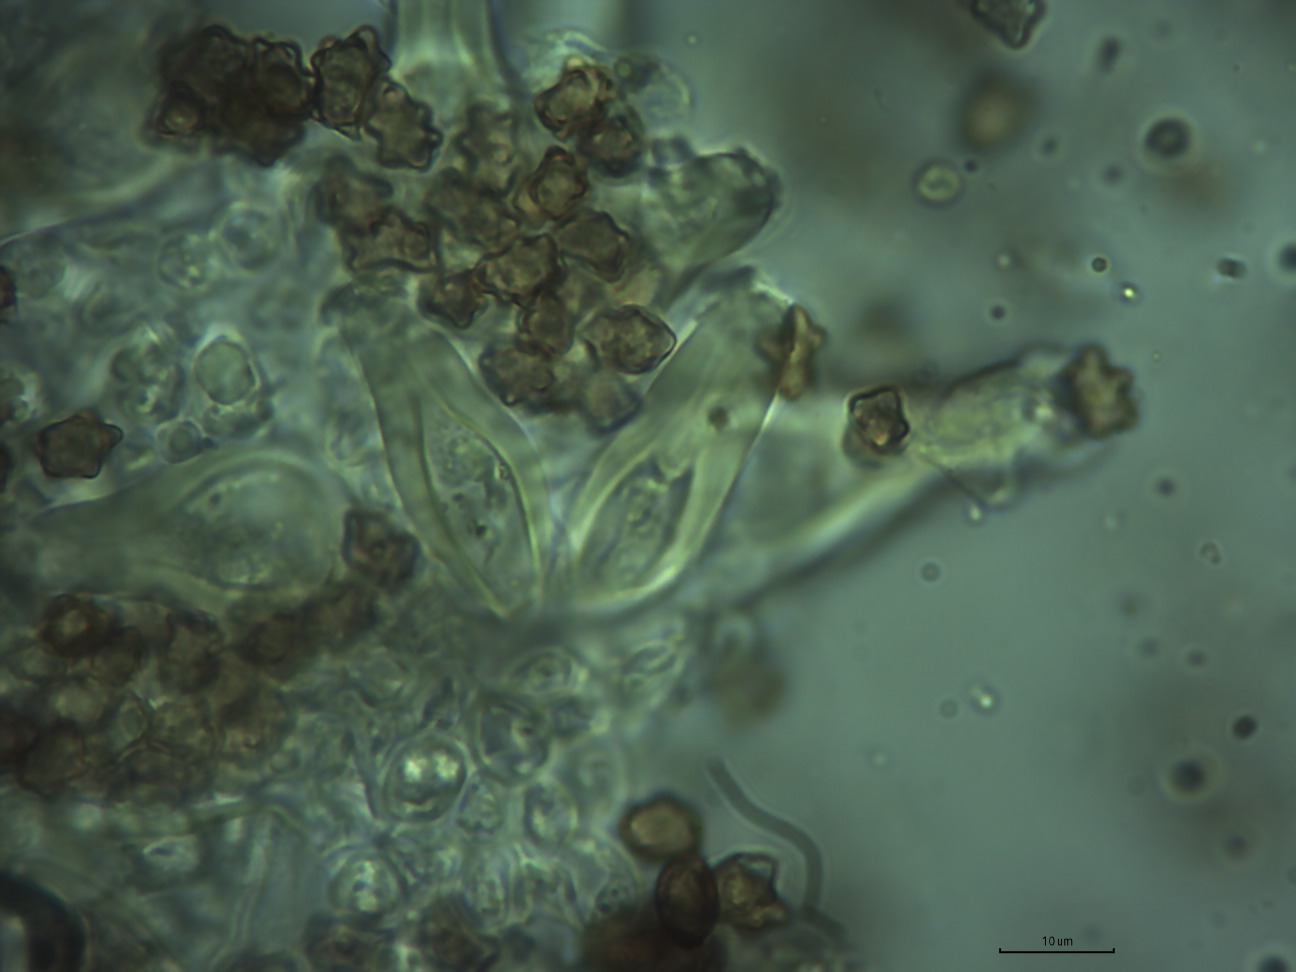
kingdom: Fungi
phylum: Basidiomycota
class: Agaricomycetes
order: Agaricales
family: Inocybaceae
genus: Inocybe
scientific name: Inocybe mixtilis
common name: randknoldet trævlhat
